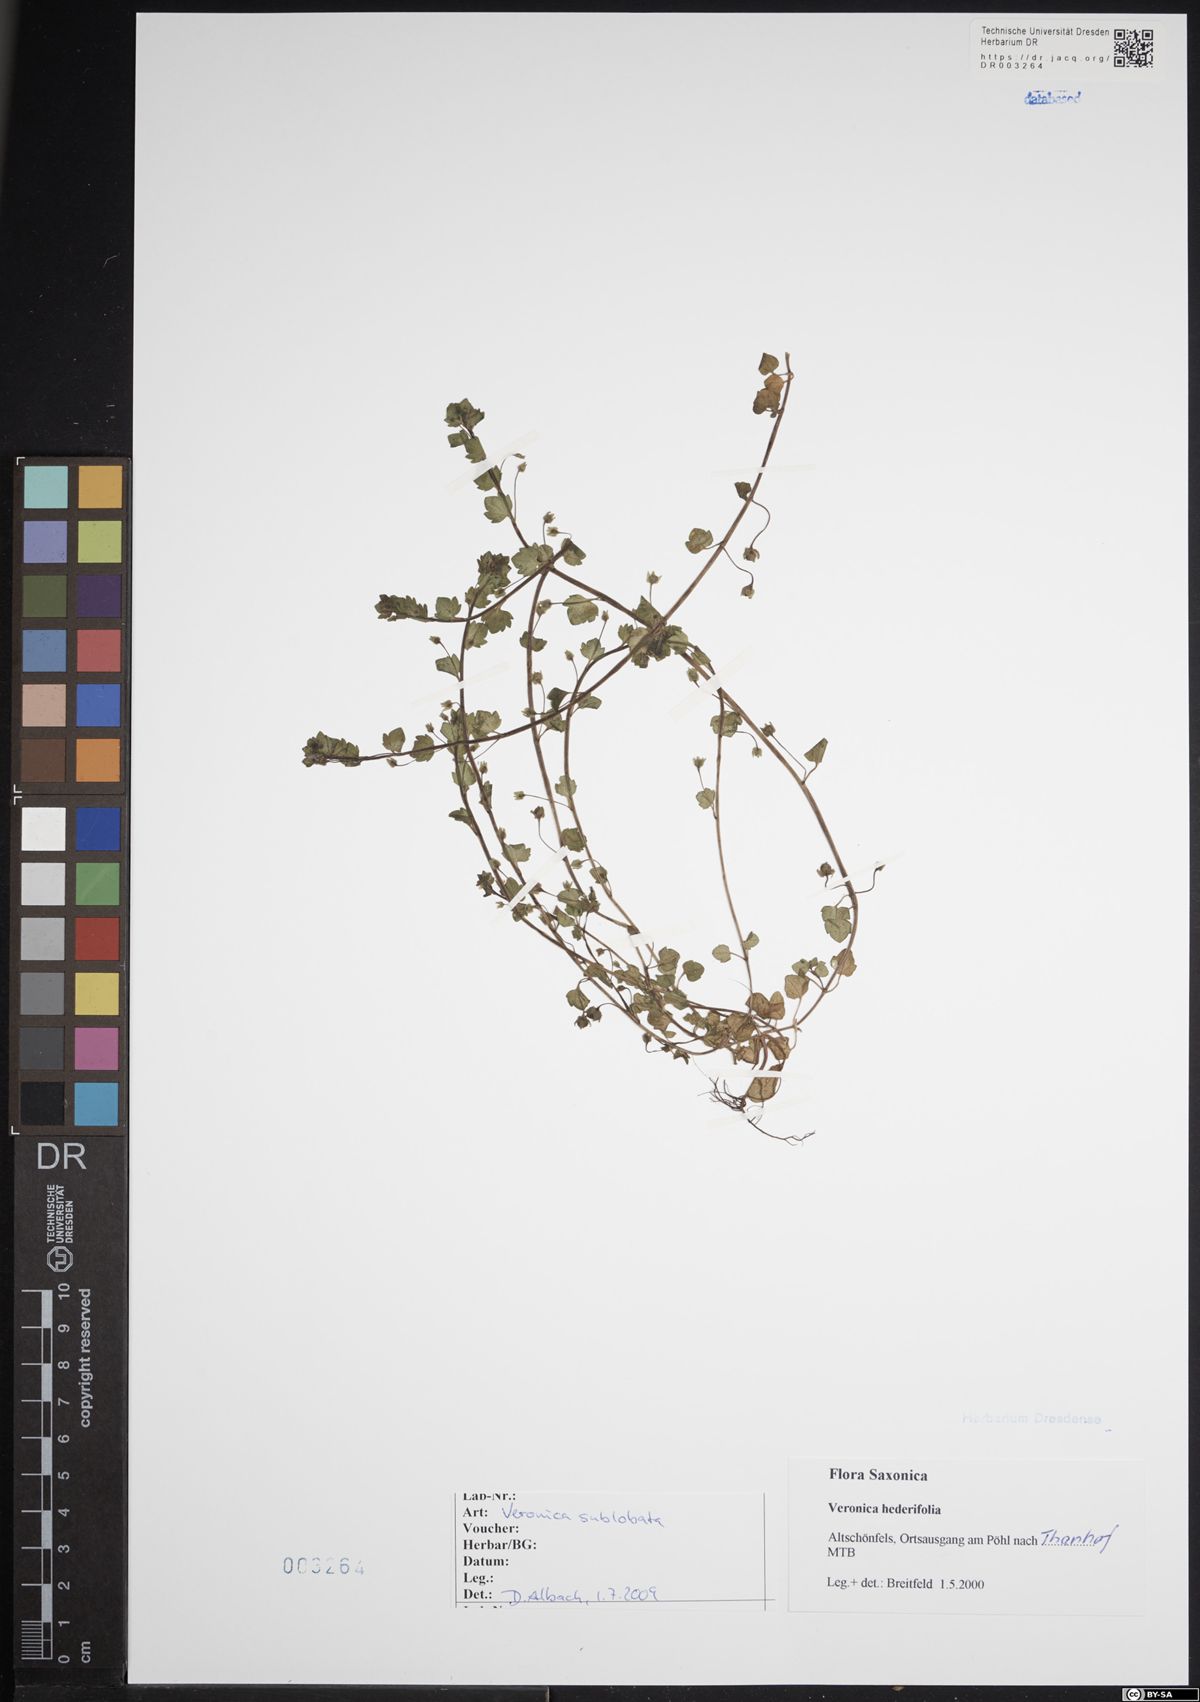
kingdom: Plantae
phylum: Tracheophyta
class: Magnoliopsida
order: Lamiales
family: Plantaginaceae
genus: Veronica
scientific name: Veronica sublobata
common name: False ivy-leaved speedwell
